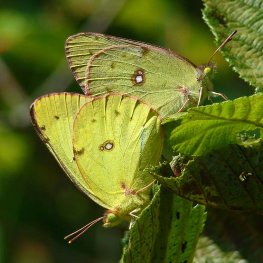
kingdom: Animalia
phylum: Arthropoda
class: Insecta
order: Lepidoptera
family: Pieridae
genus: Colias
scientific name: Colias philodice
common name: Clouded Sulphur
